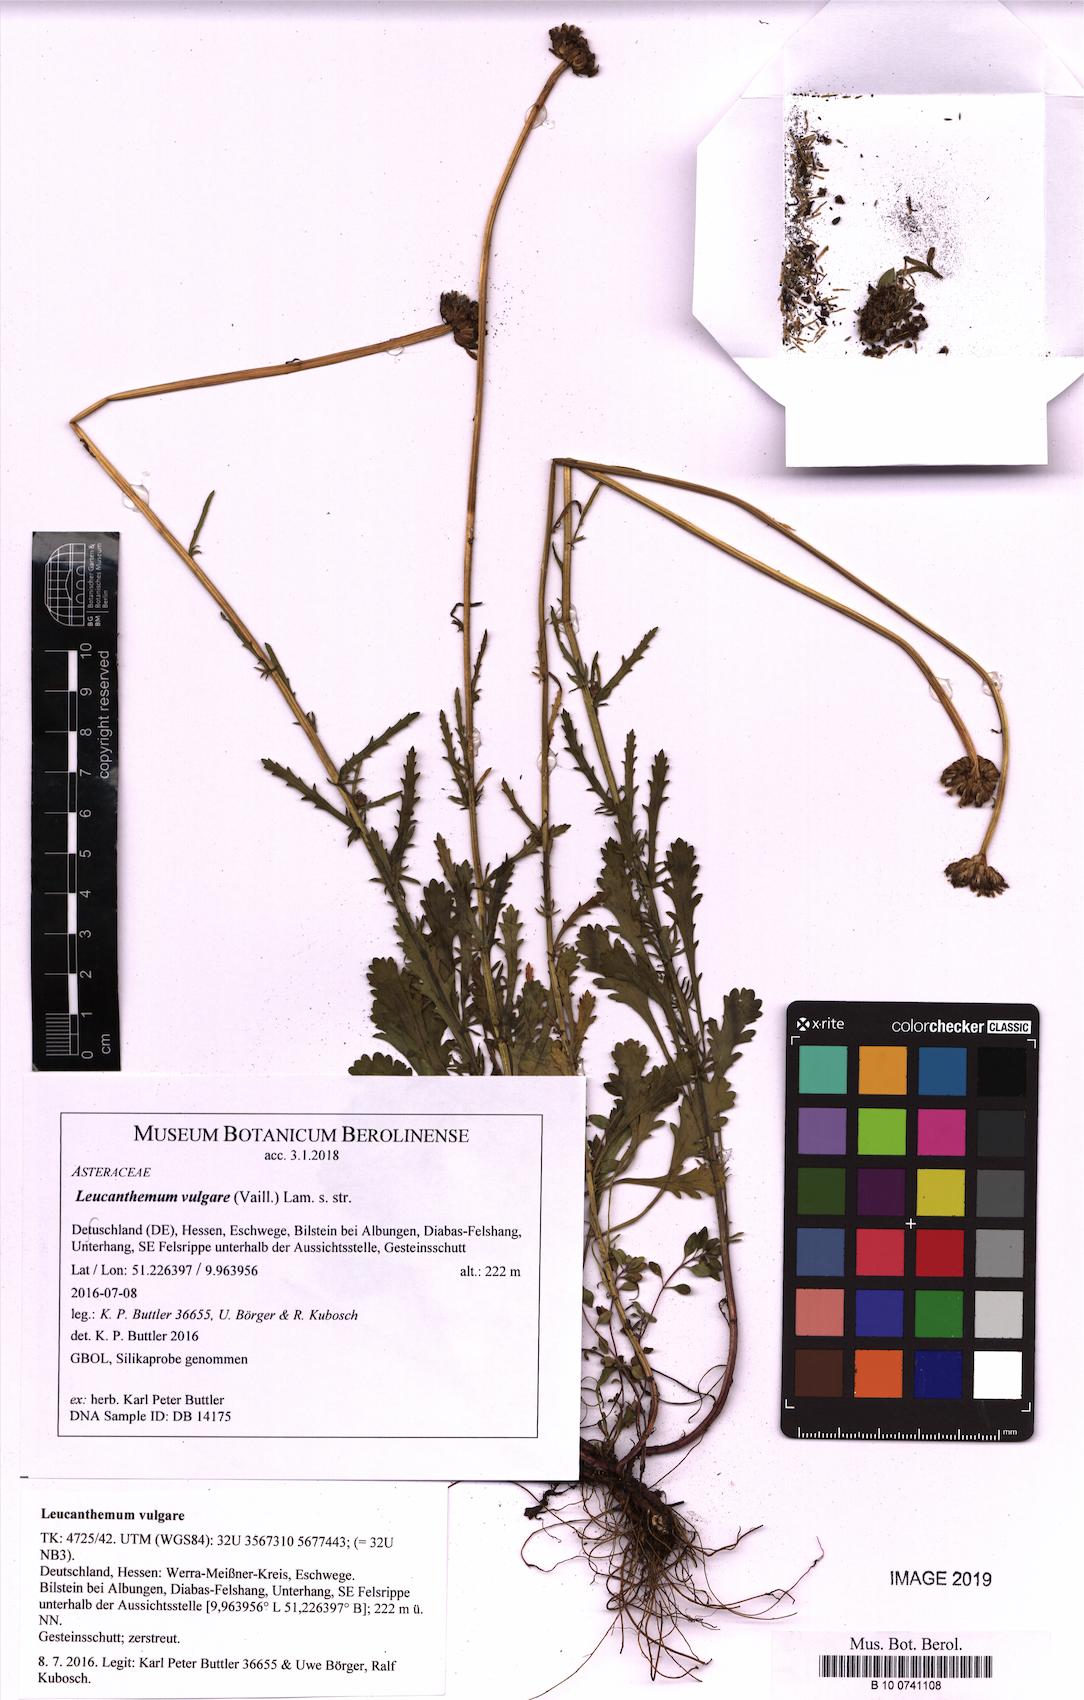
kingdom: Plantae
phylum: Tracheophyta
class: Magnoliopsida
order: Asterales
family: Asteraceae
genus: Leucanthemum
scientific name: Leucanthemum vulgare
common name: Oxeye daisy
